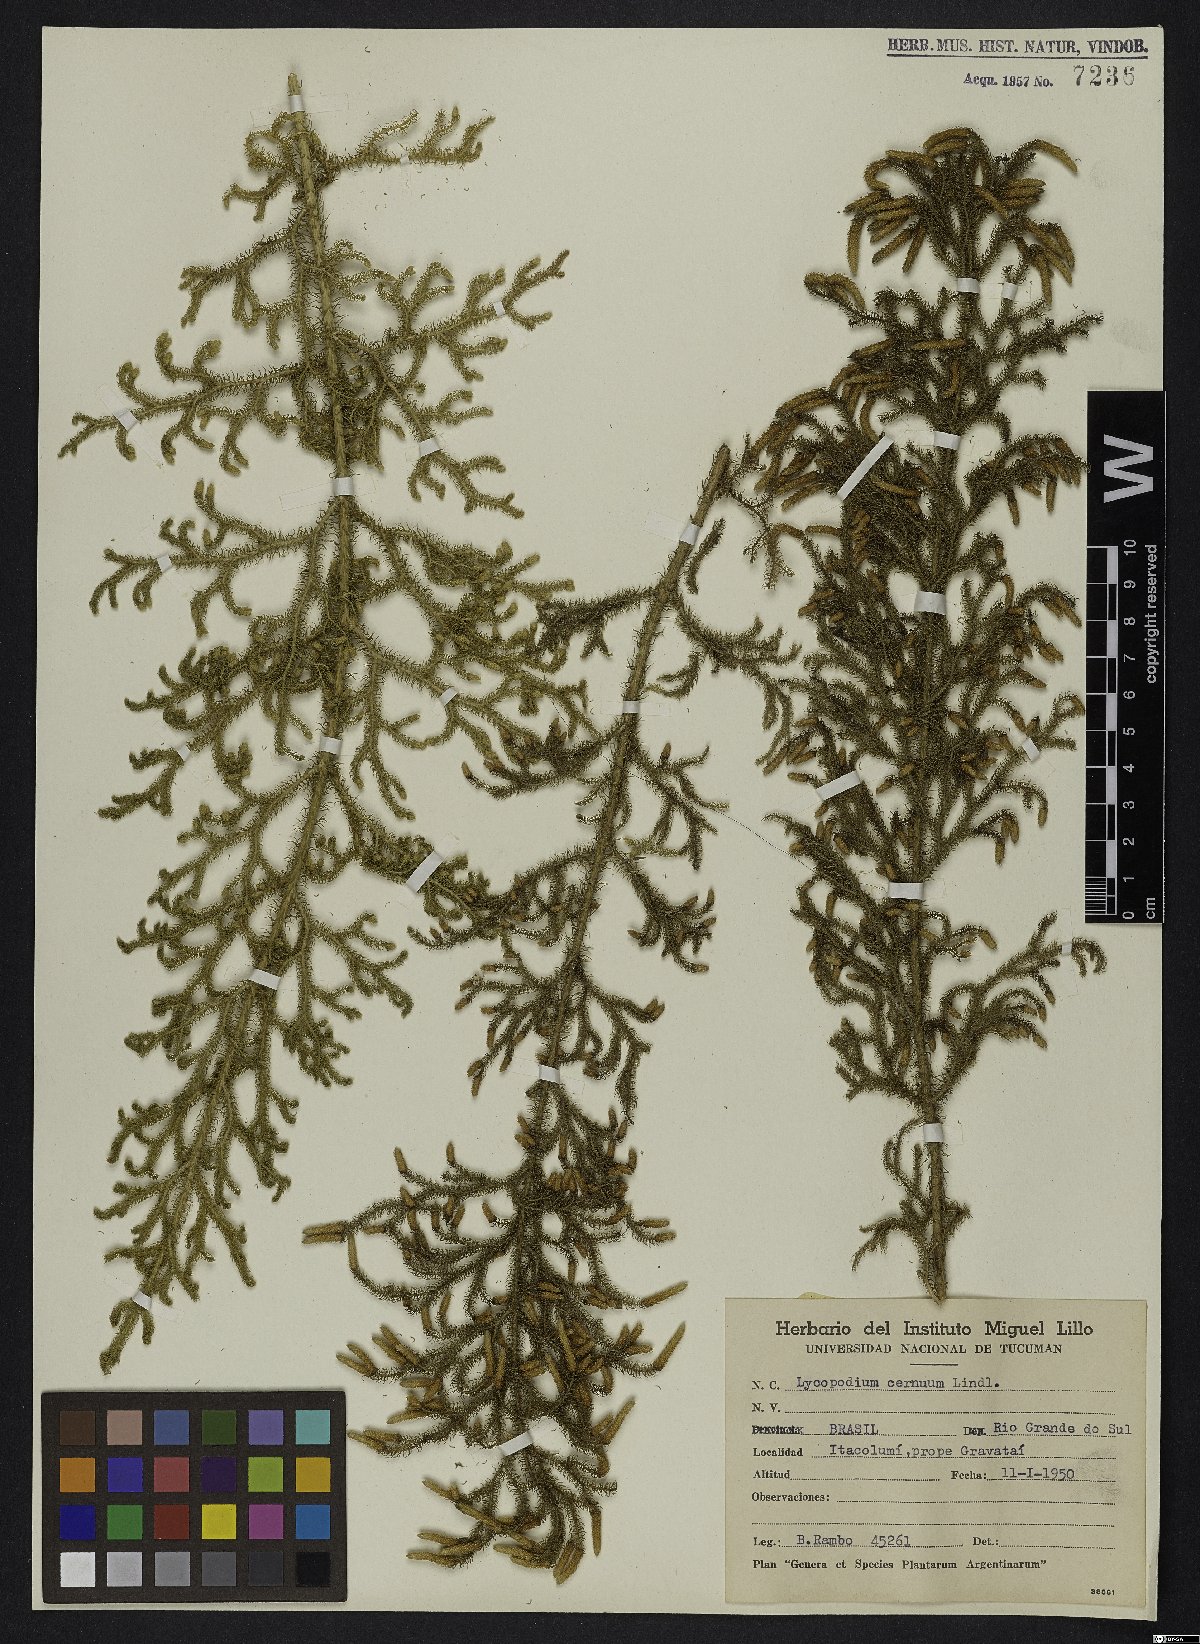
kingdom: Plantae
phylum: Tracheophyta
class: Lycopodiopsida
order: Lycopodiales
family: Lycopodiaceae
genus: Palhinhaea
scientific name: Palhinhaea cernua
